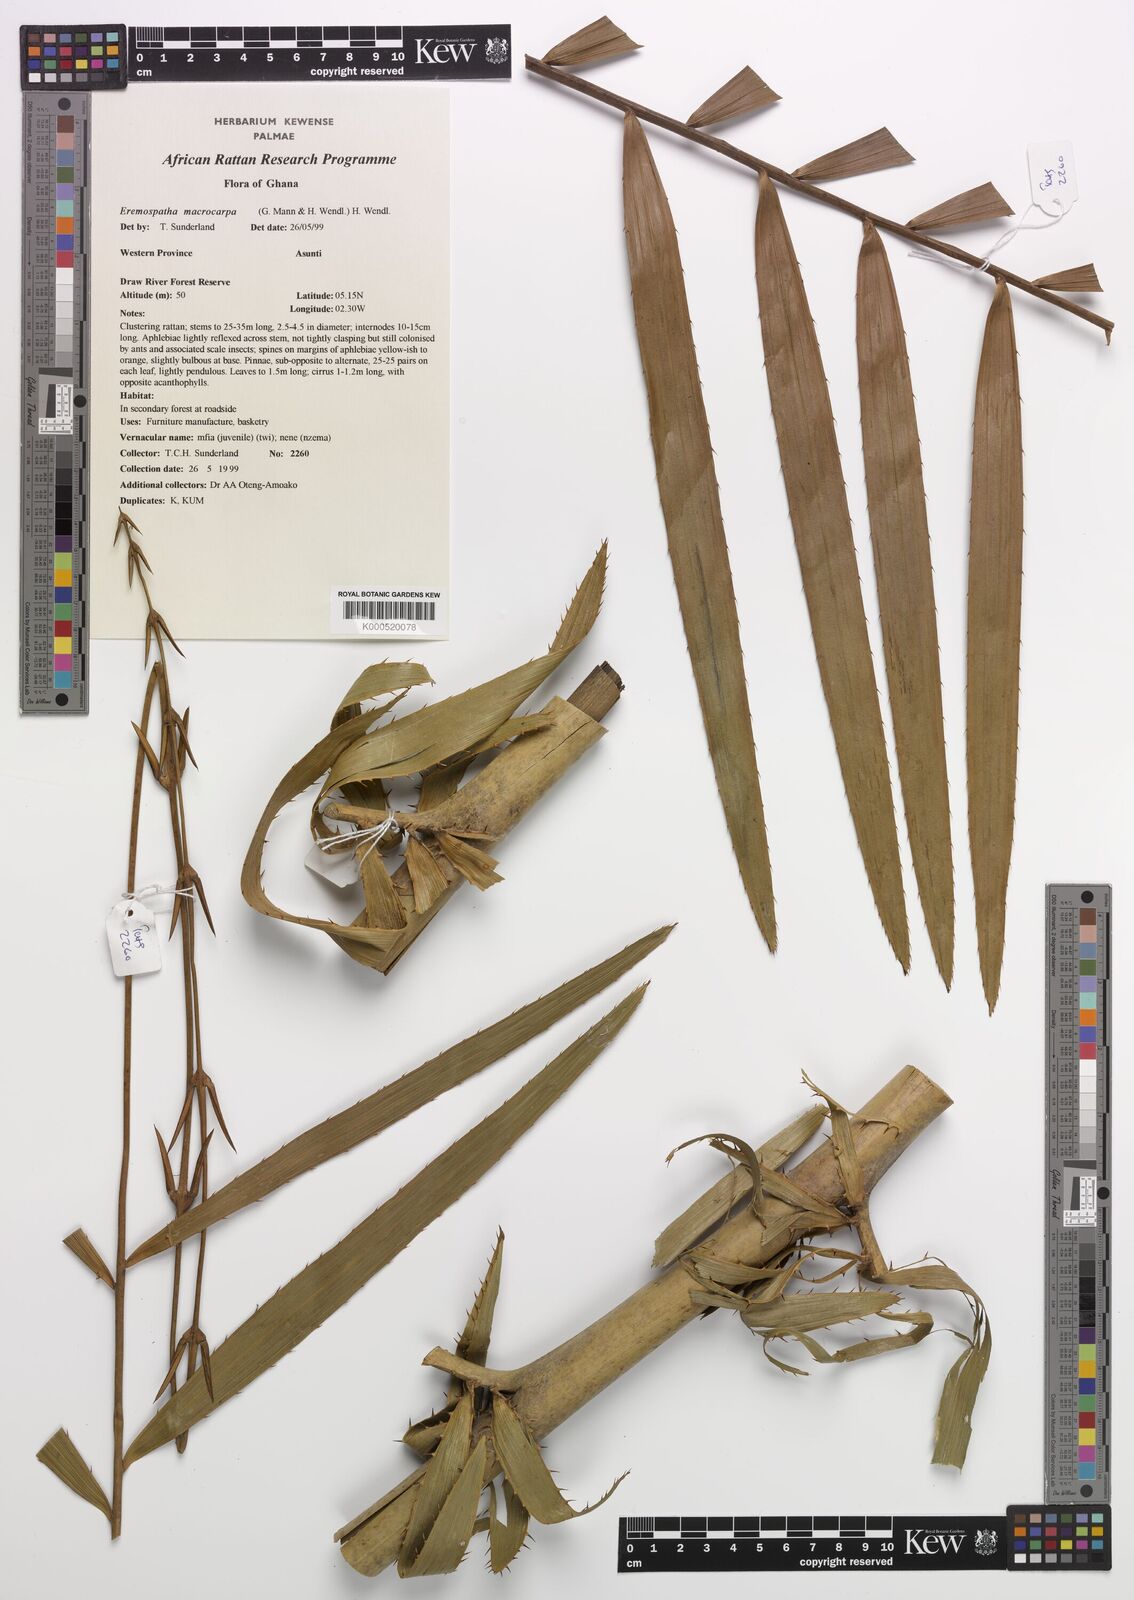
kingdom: Plantae
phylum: Tracheophyta
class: Liliopsida
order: Arecales
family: Arecaceae
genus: Eremospatha
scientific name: Eremospatha
